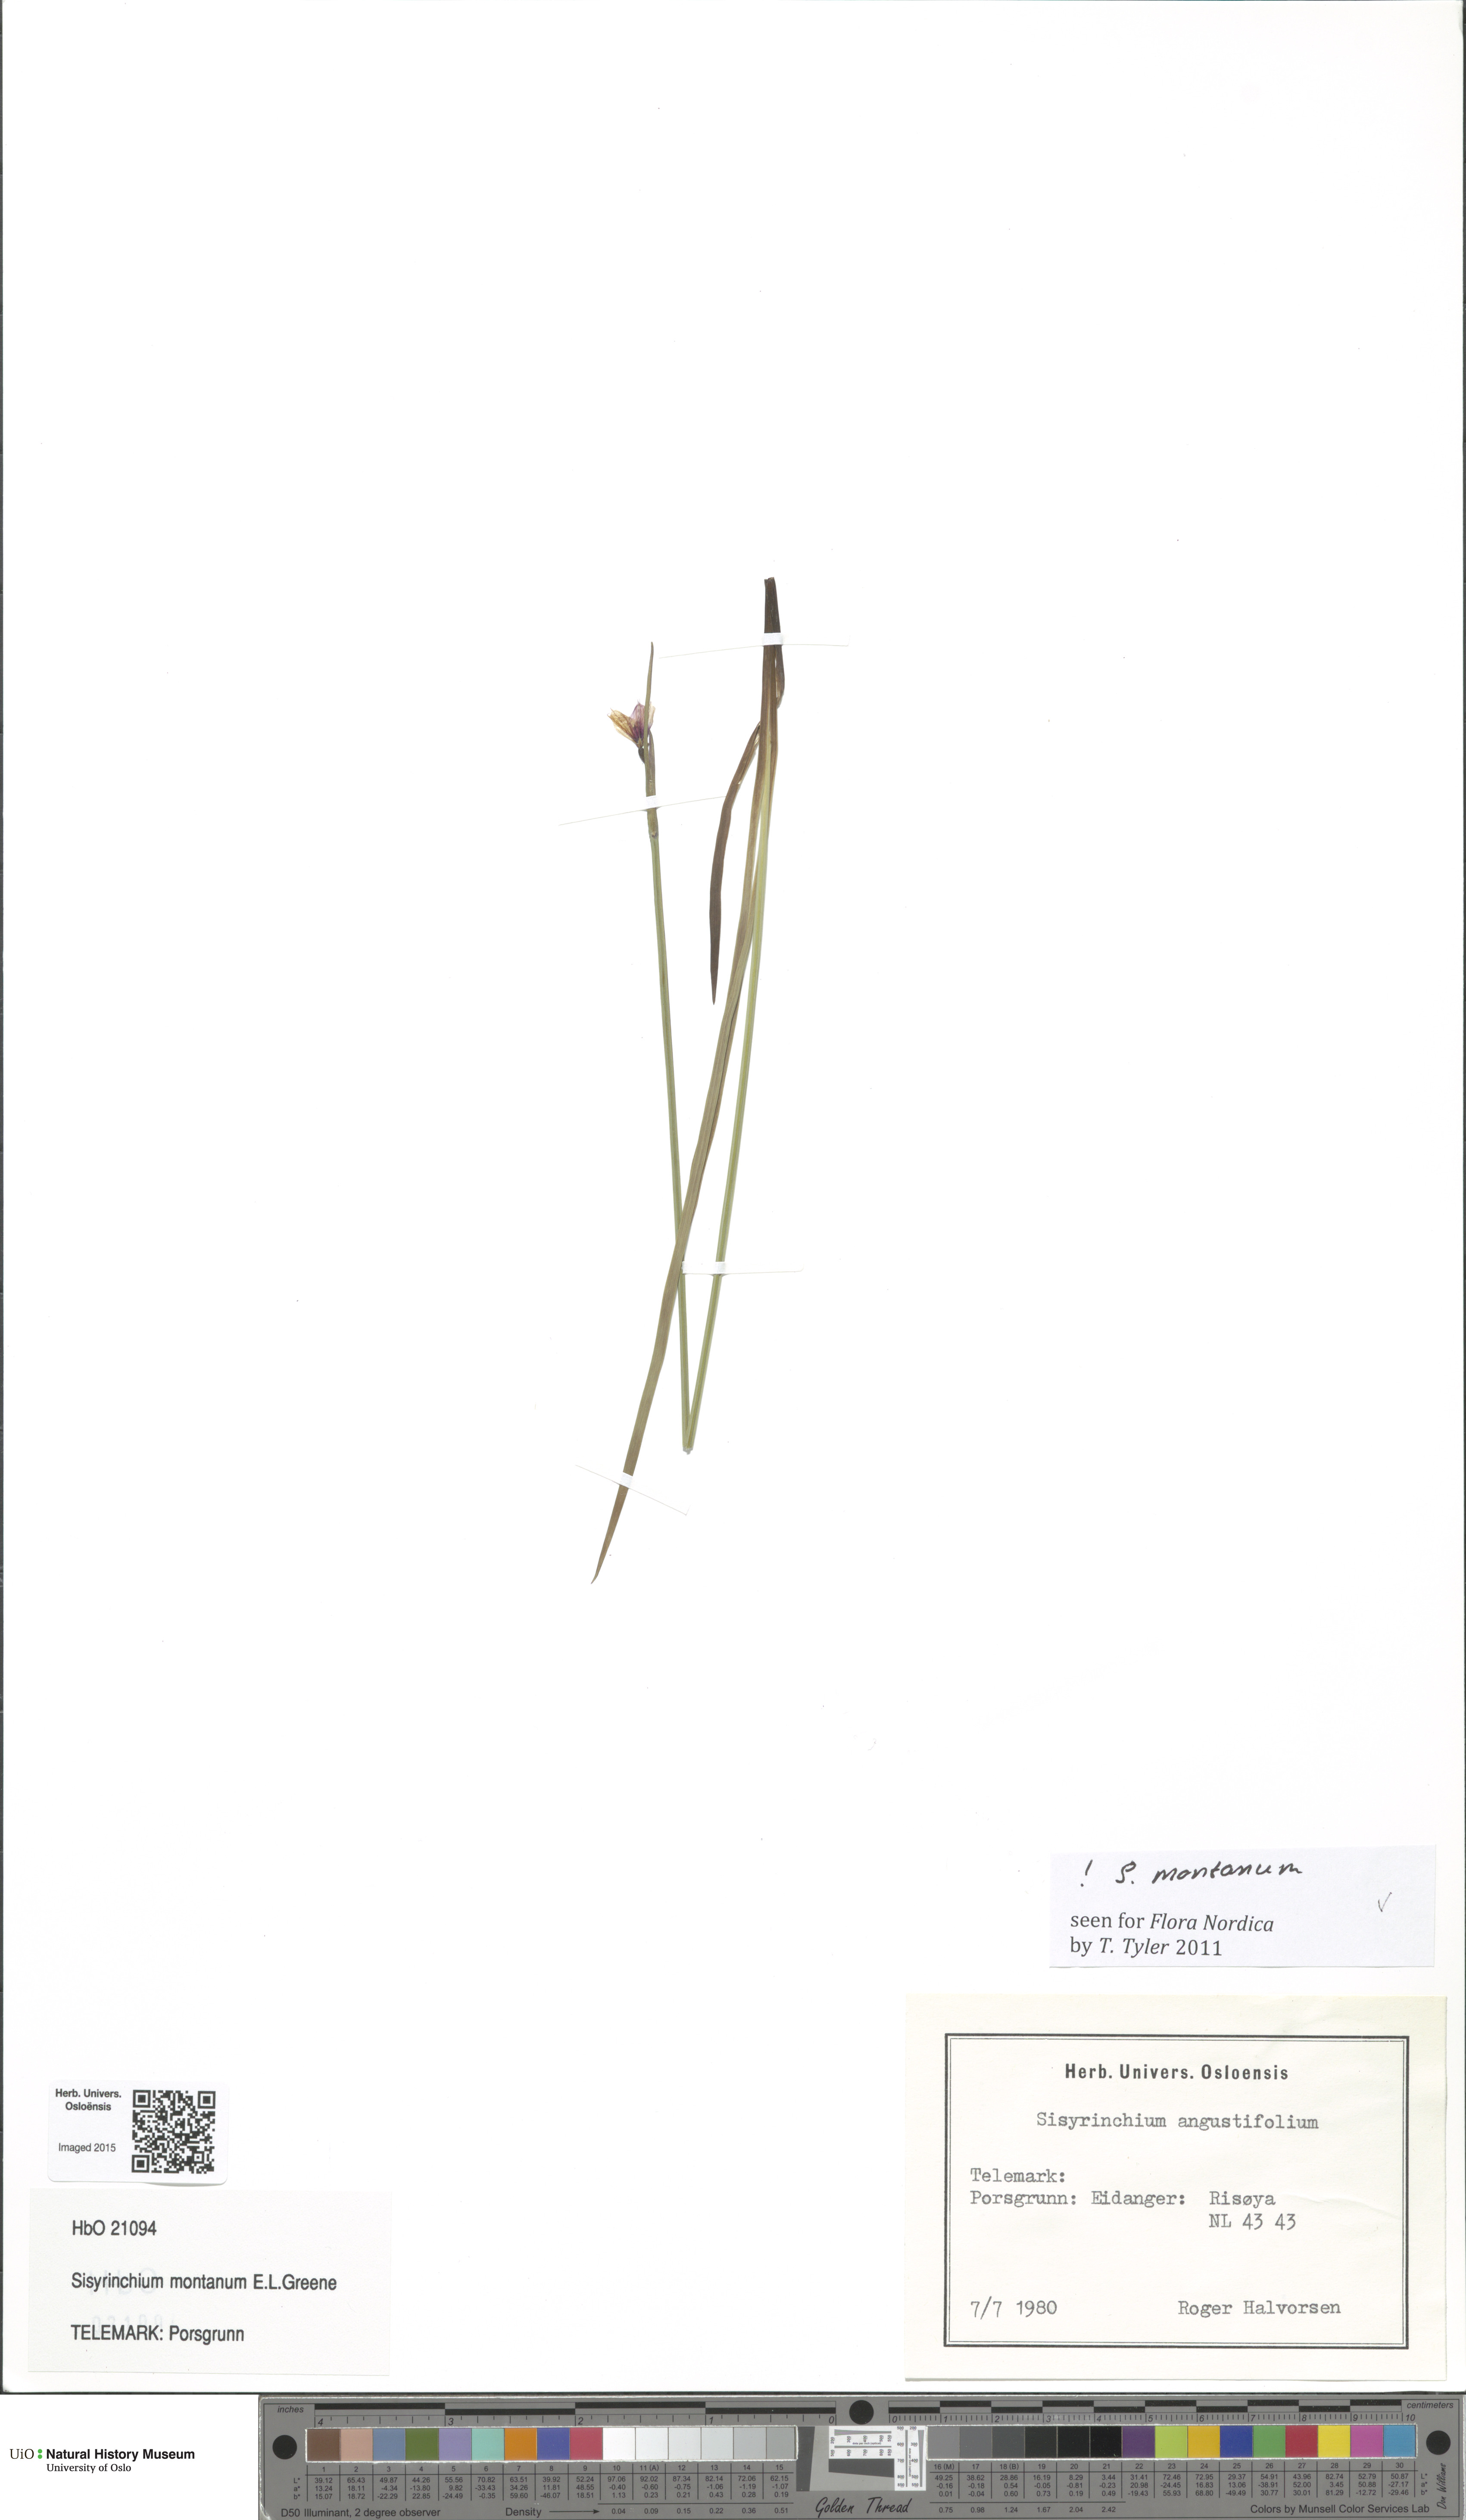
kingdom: Plantae
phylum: Tracheophyta
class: Liliopsida
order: Asparagales
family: Iridaceae
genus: Sisyrinchium
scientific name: Sisyrinchium montanum
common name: American blue-eyed-grass
